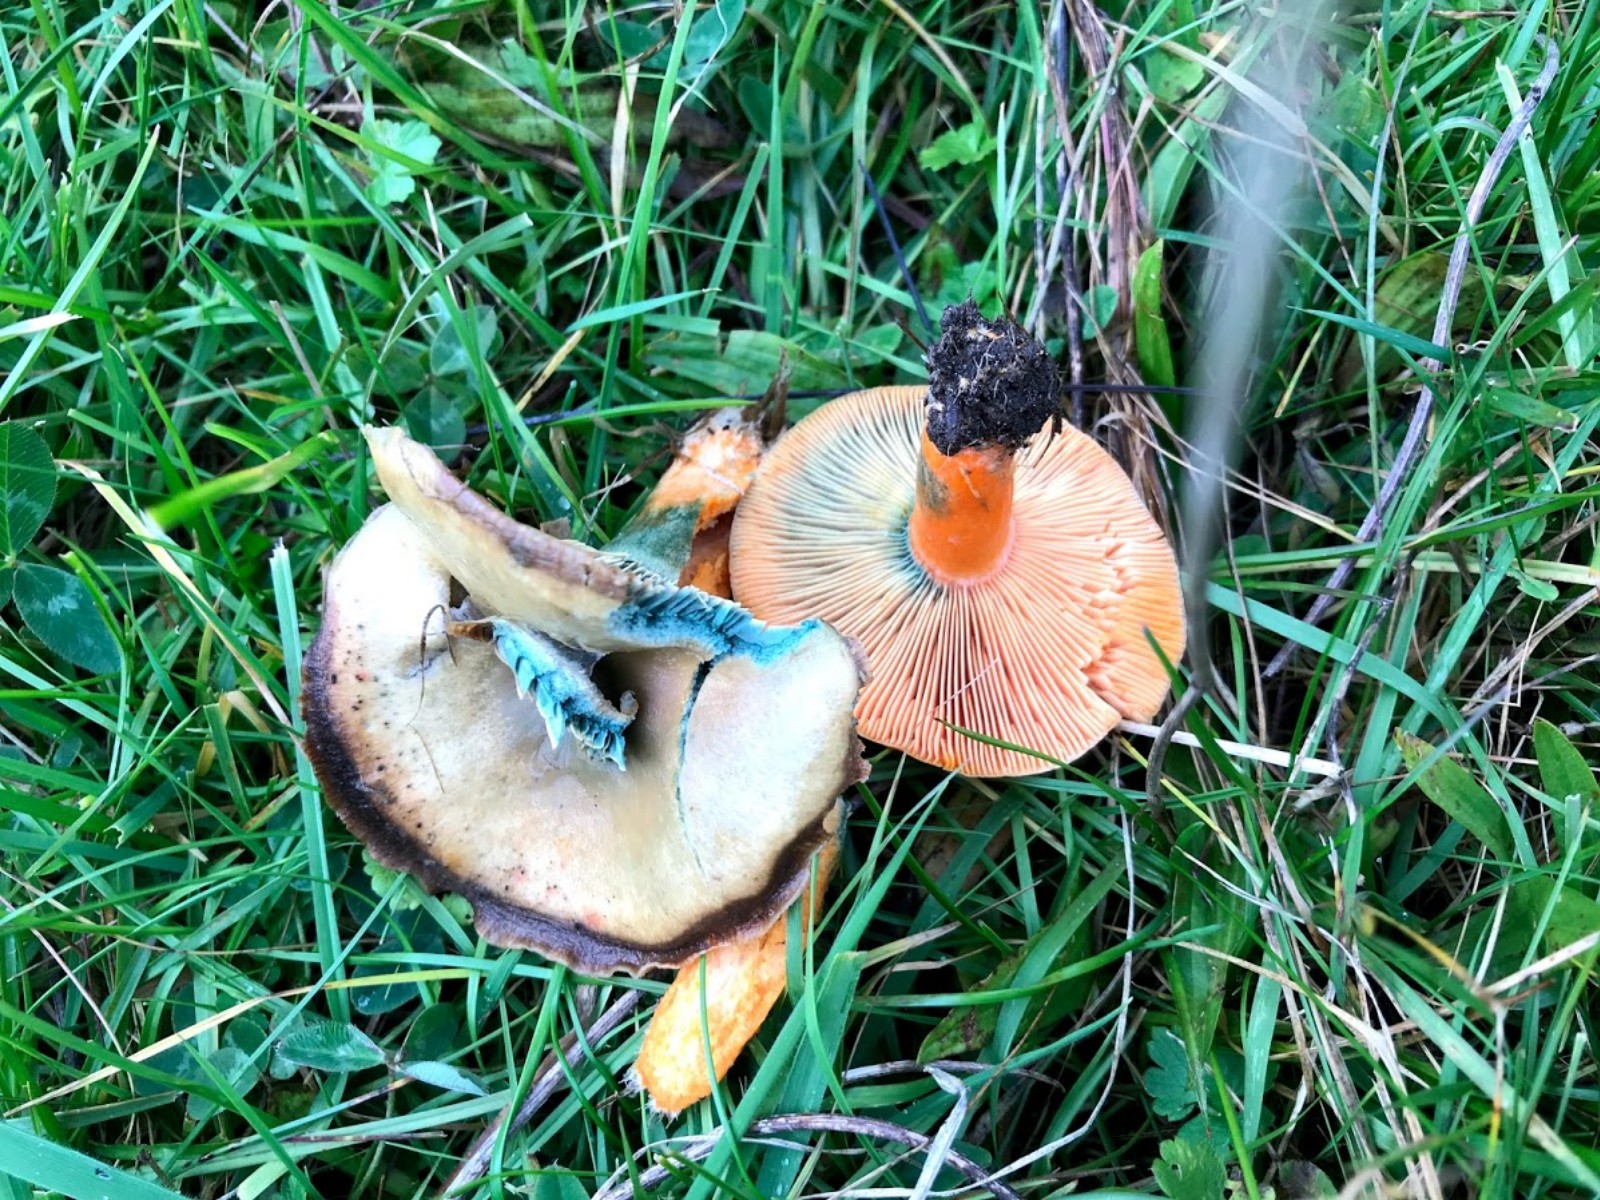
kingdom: Fungi
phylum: Basidiomycota
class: Agaricomycetes
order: Russulales
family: Russulaceae
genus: Lactarius
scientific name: Lactarius deterrimus
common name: gran-mælkehat
